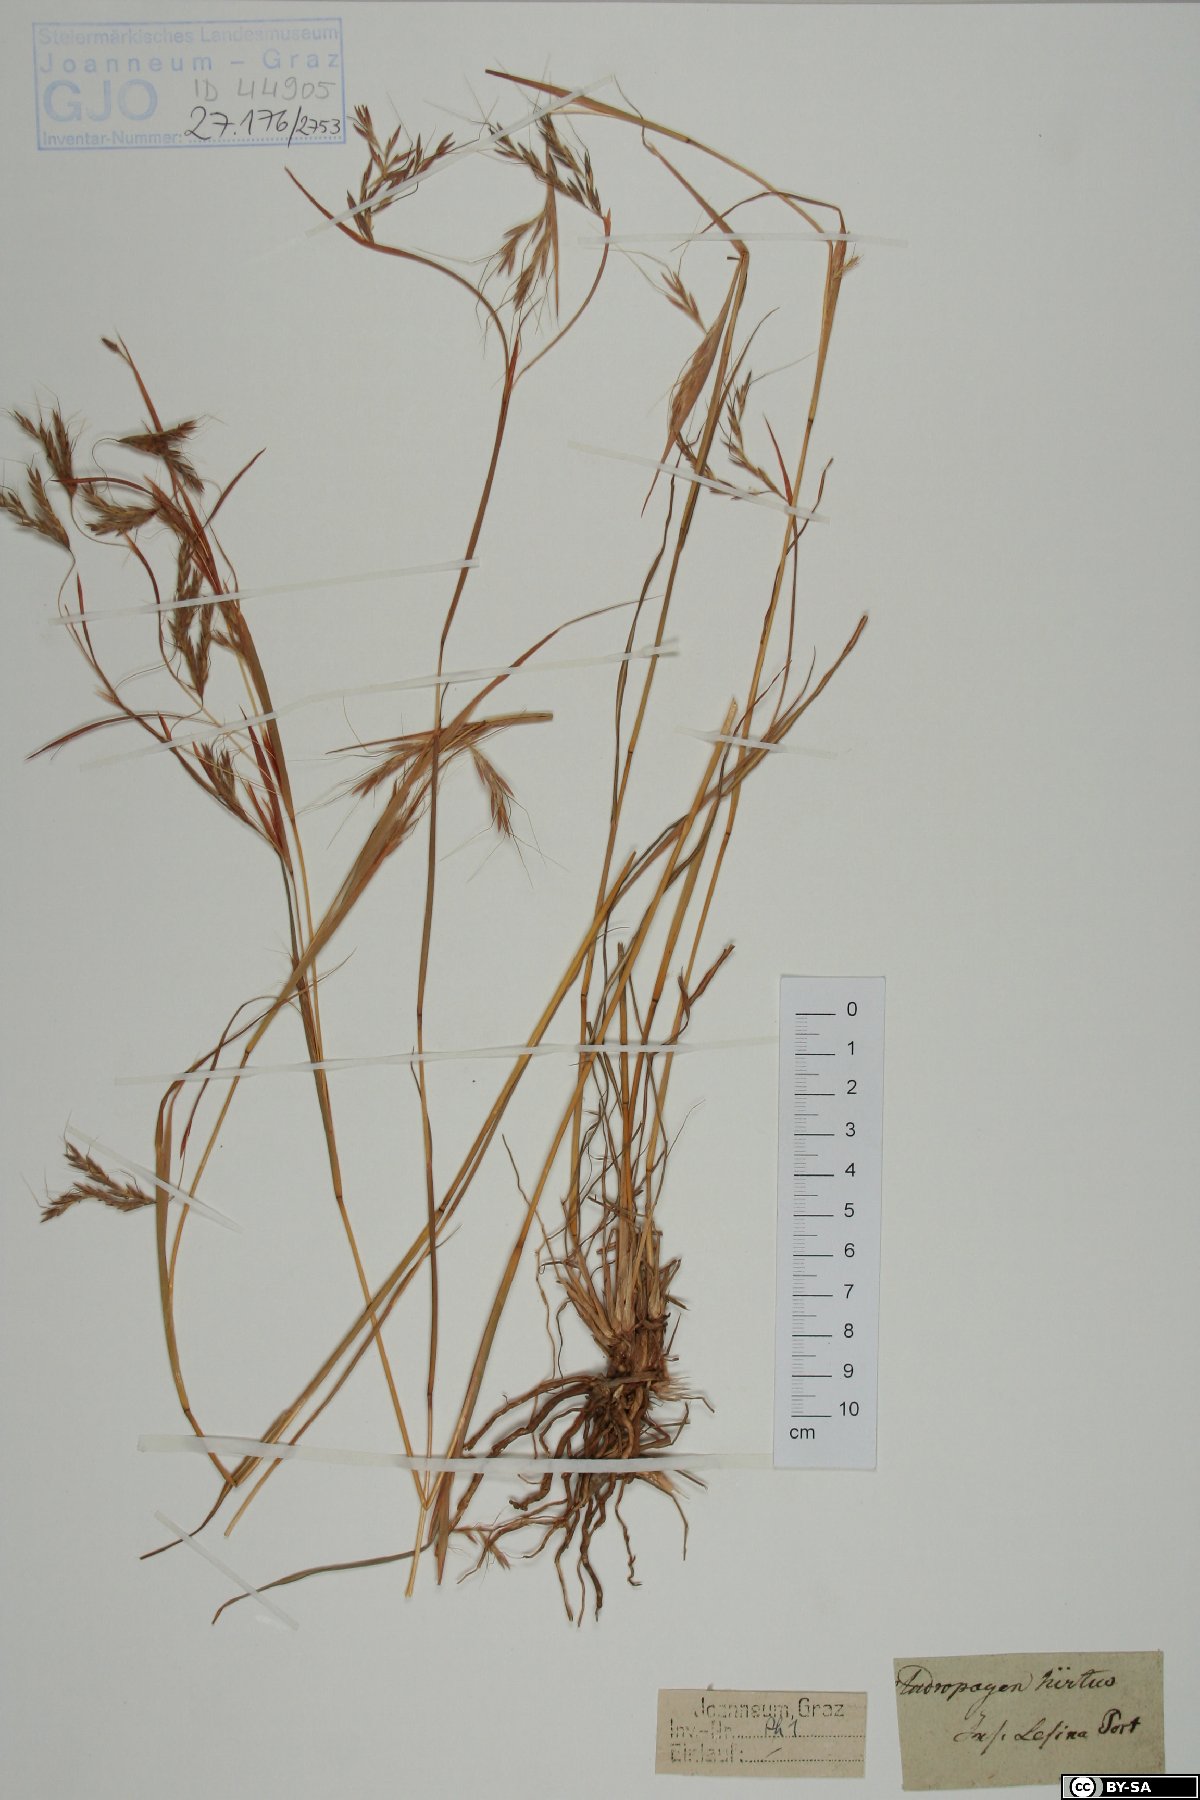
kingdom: Plantae
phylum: Tracheophyta
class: Liliopsida
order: Poales
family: Poaceae
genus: Hyparrhenia
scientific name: Hyparrhenia hirta
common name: Thatching grass
